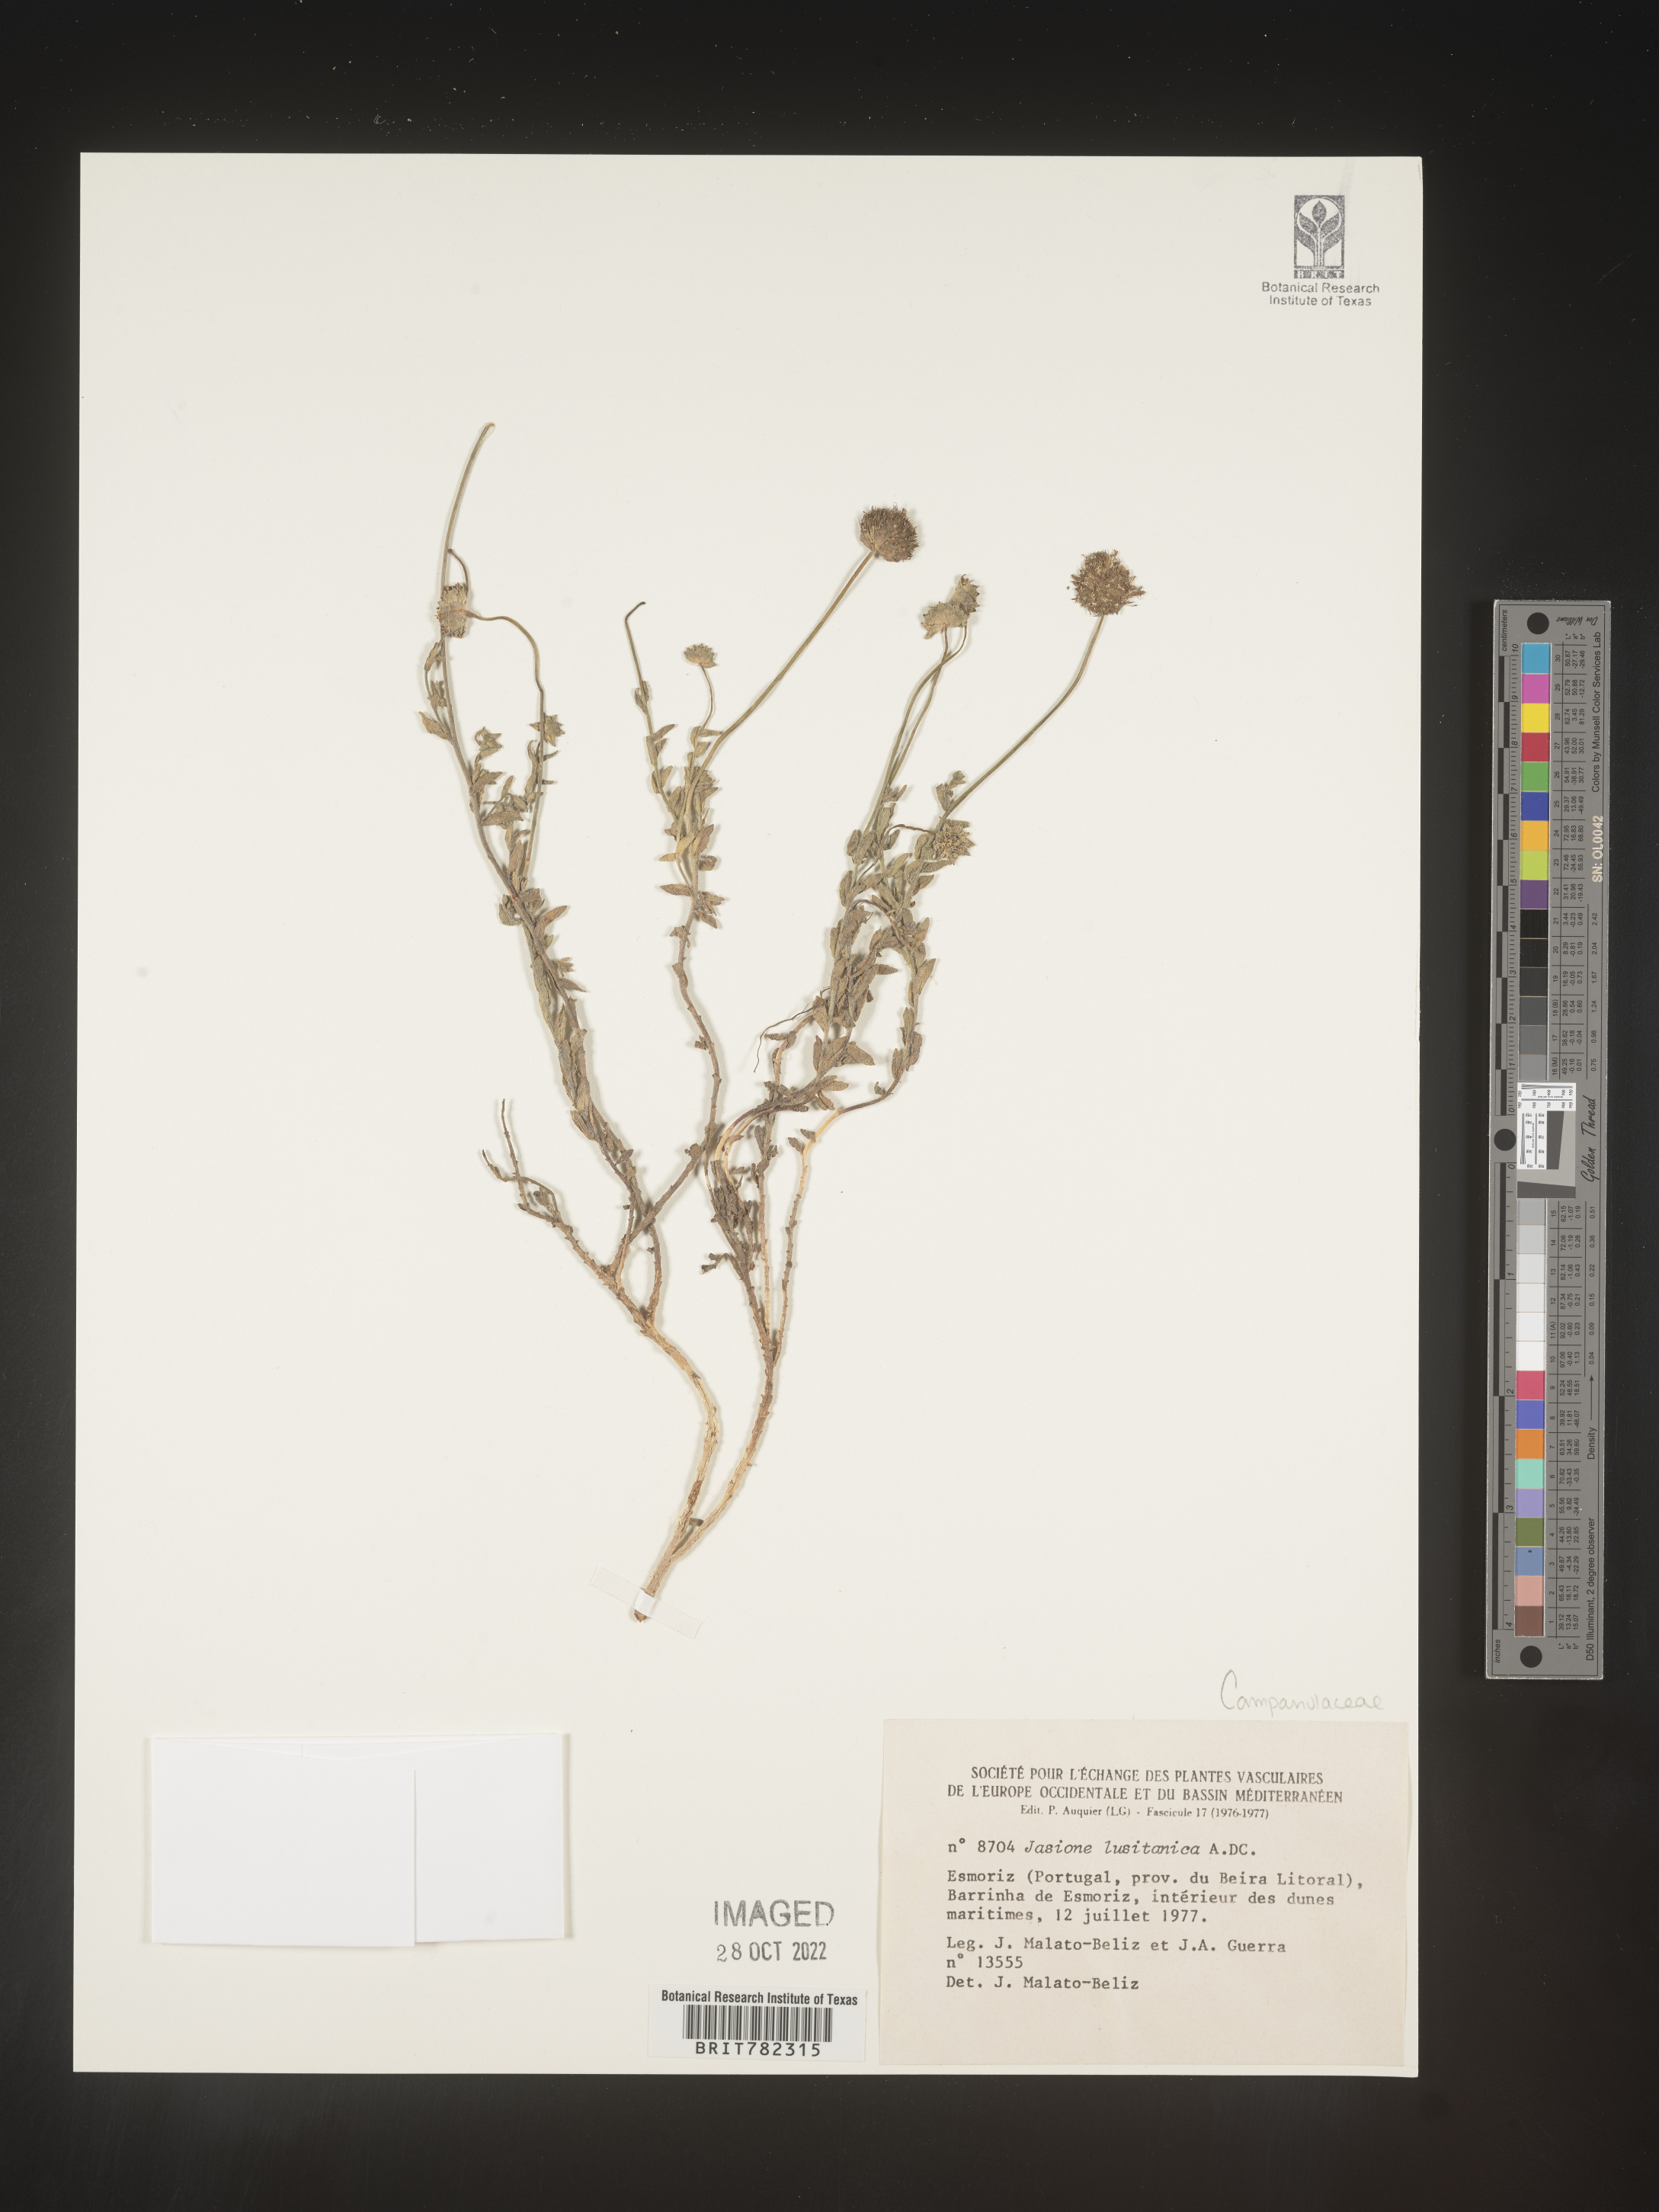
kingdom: Plantae
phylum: Tracheophyta
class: Magnoliopsida
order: Asterales
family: Campanulaceae
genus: Jasione
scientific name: Jasione
